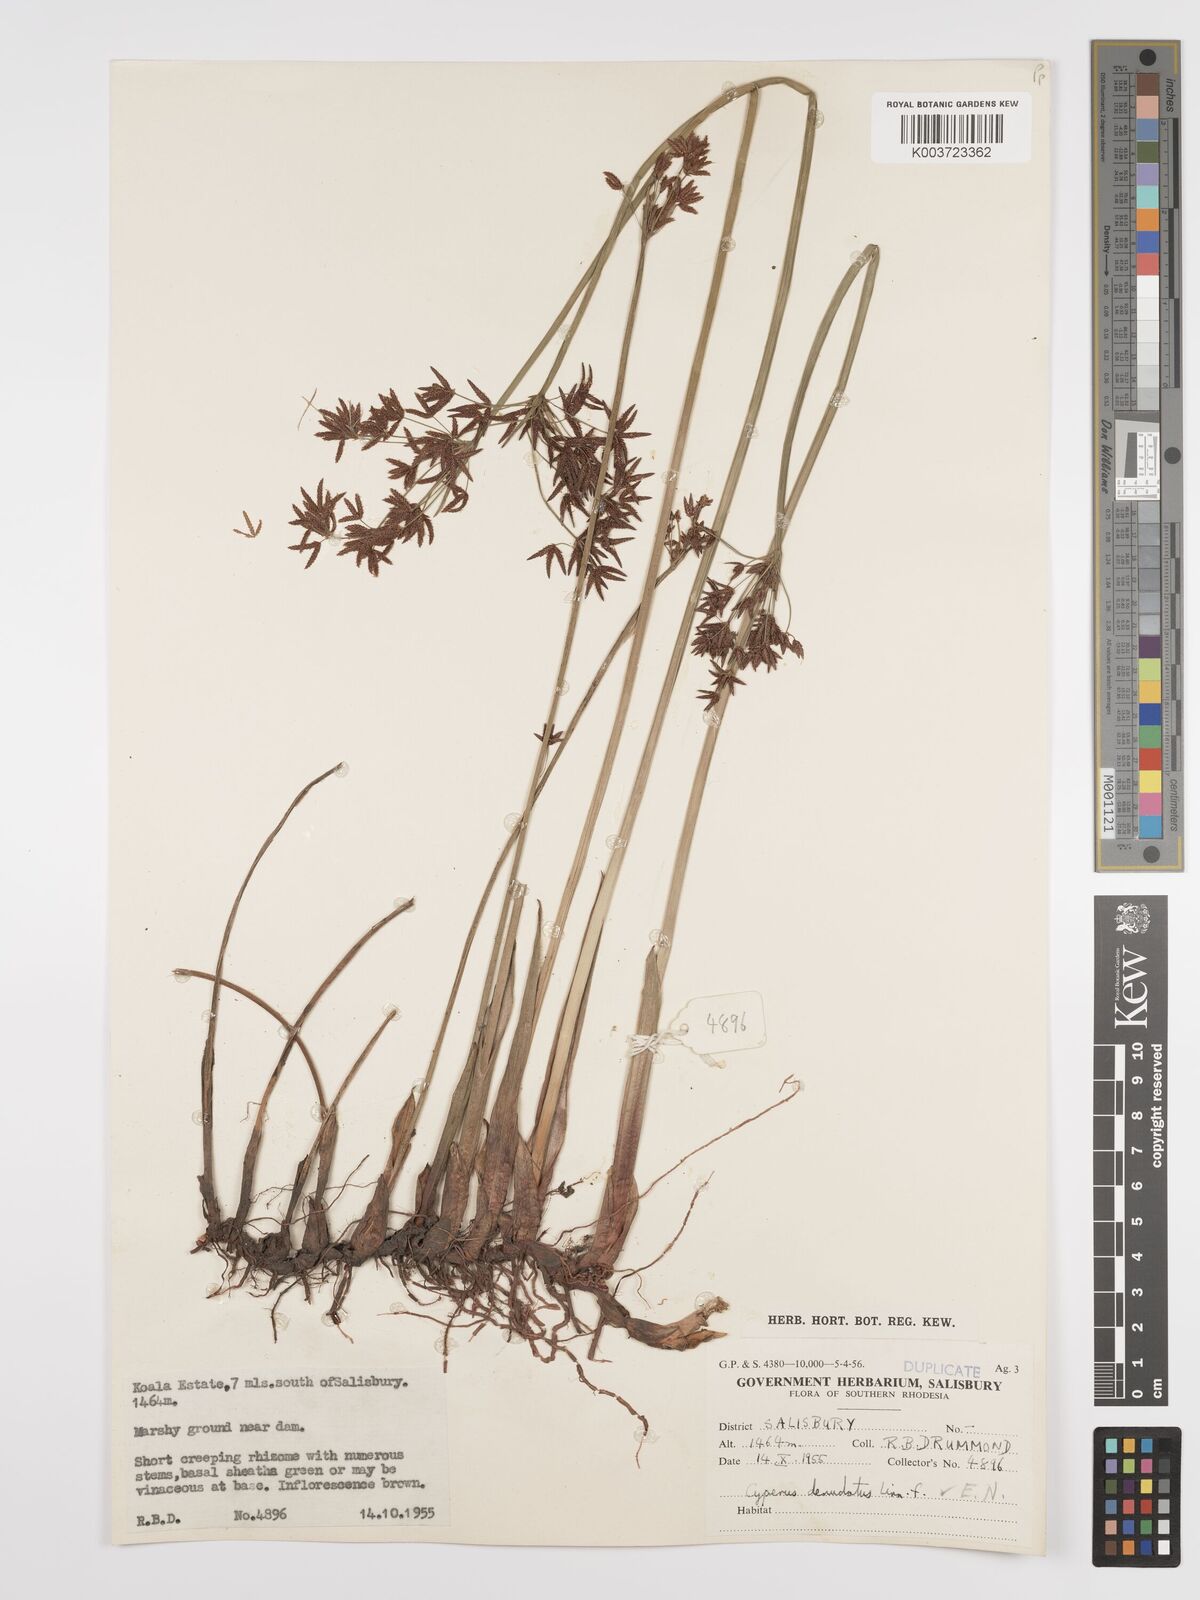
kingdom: Plantae
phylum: Tracheophyta
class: Liliopsida
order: Poales
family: Cyperaceae
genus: Cyperus
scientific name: Cyperus denudatus
